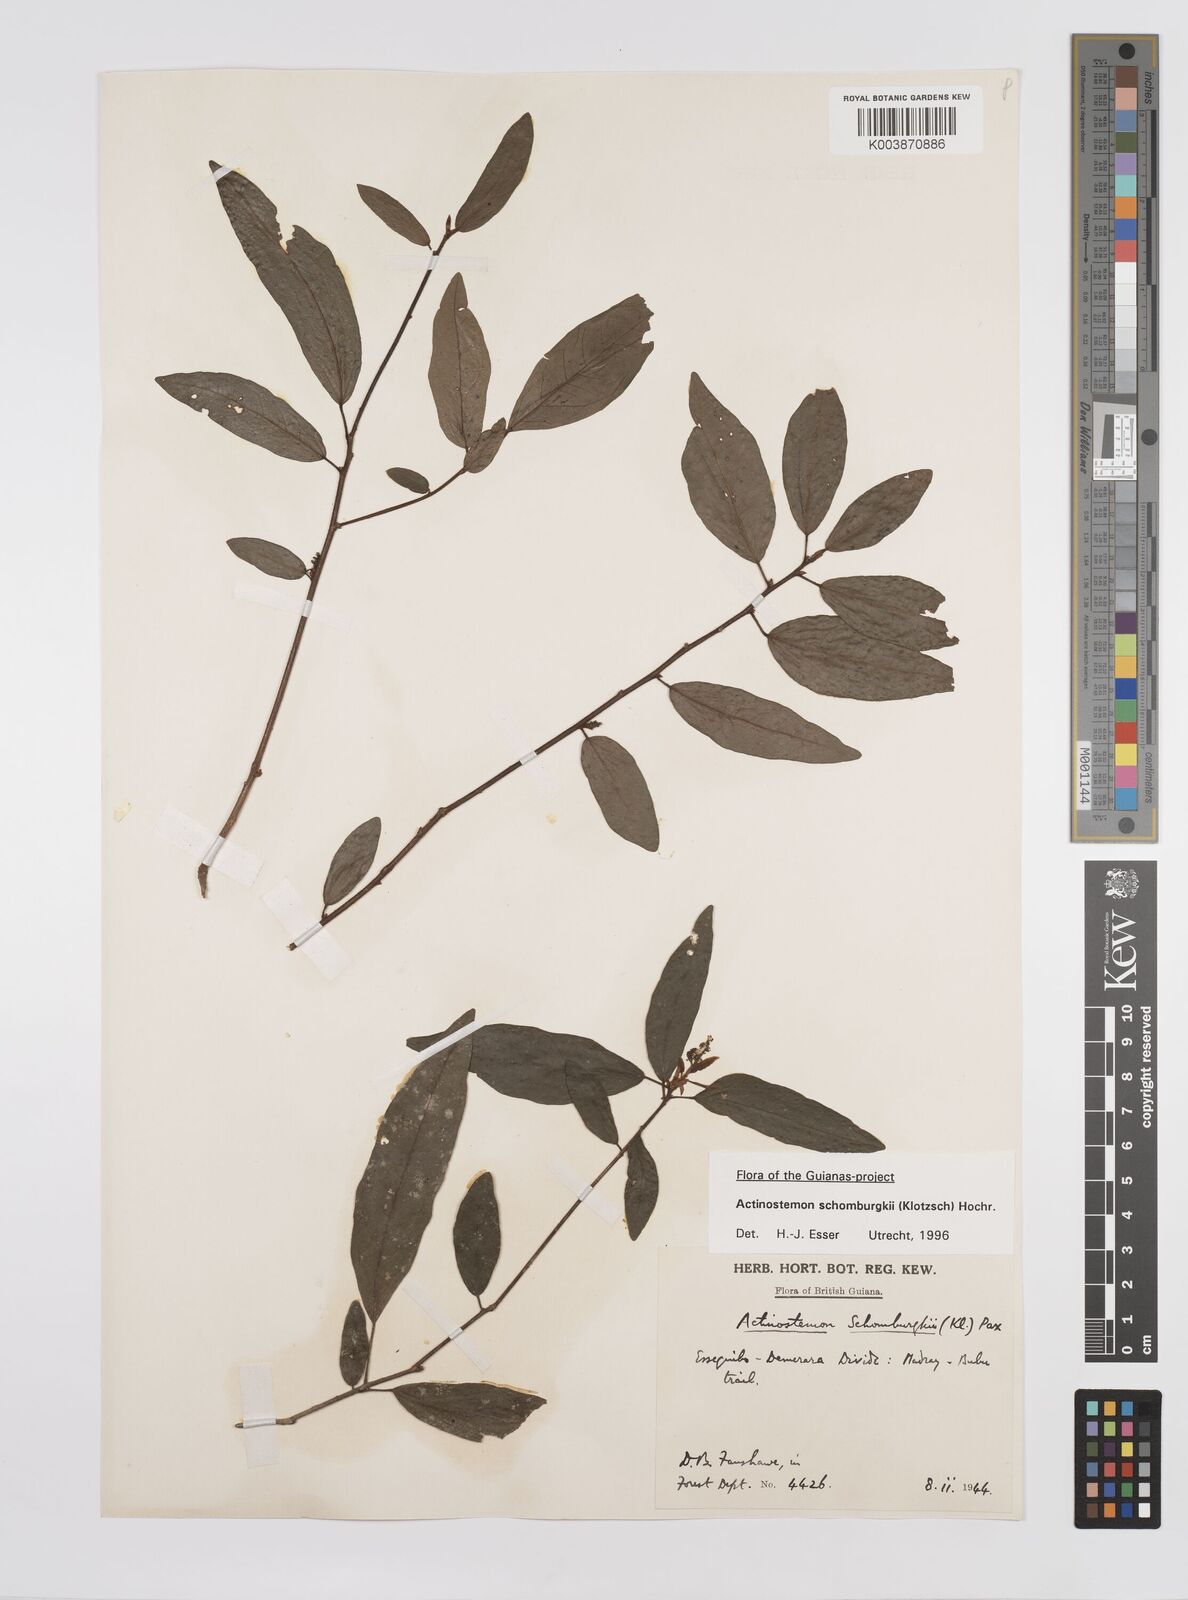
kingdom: Plantae
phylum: Tracheophyta
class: Magnoliopsida
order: Malpighiales
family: Euphorbiaceae
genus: Actinostemon
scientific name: Actinostemon schomburgkii
